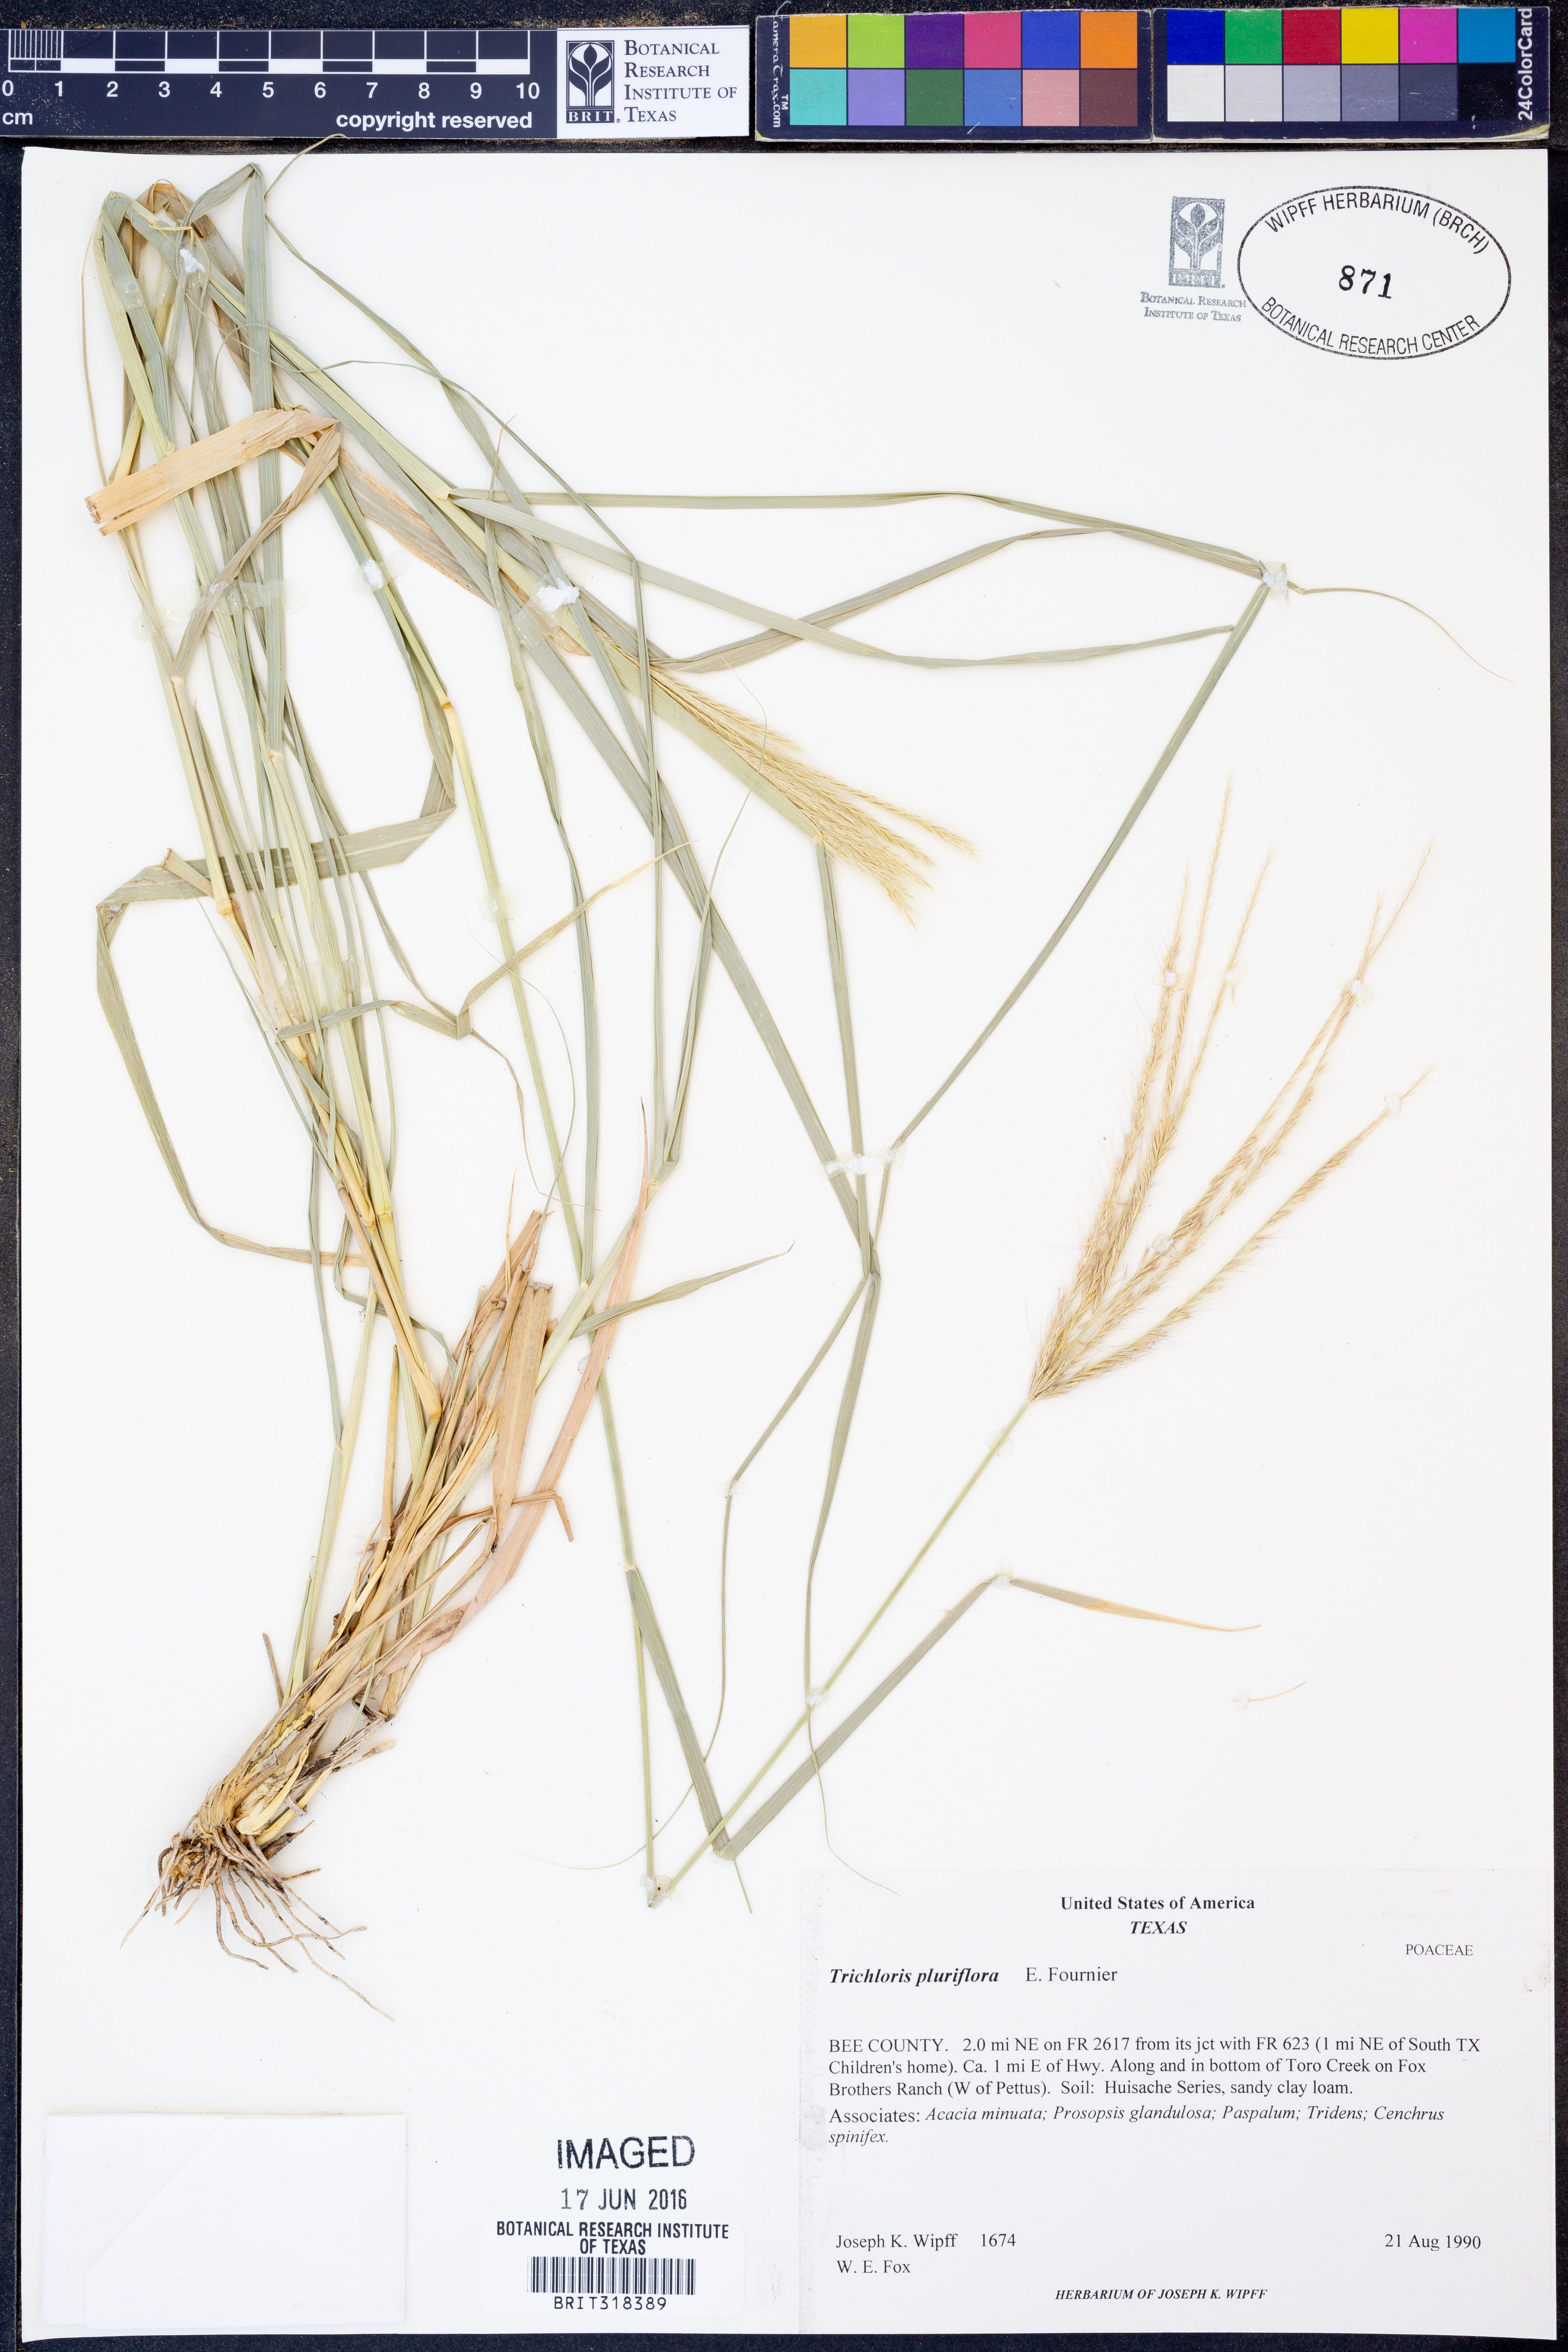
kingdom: Plantae
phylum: Tracheophyta
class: Liliopsida
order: Poales
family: Poaceae
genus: Leptochloa
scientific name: Leptochloa pluriflora
